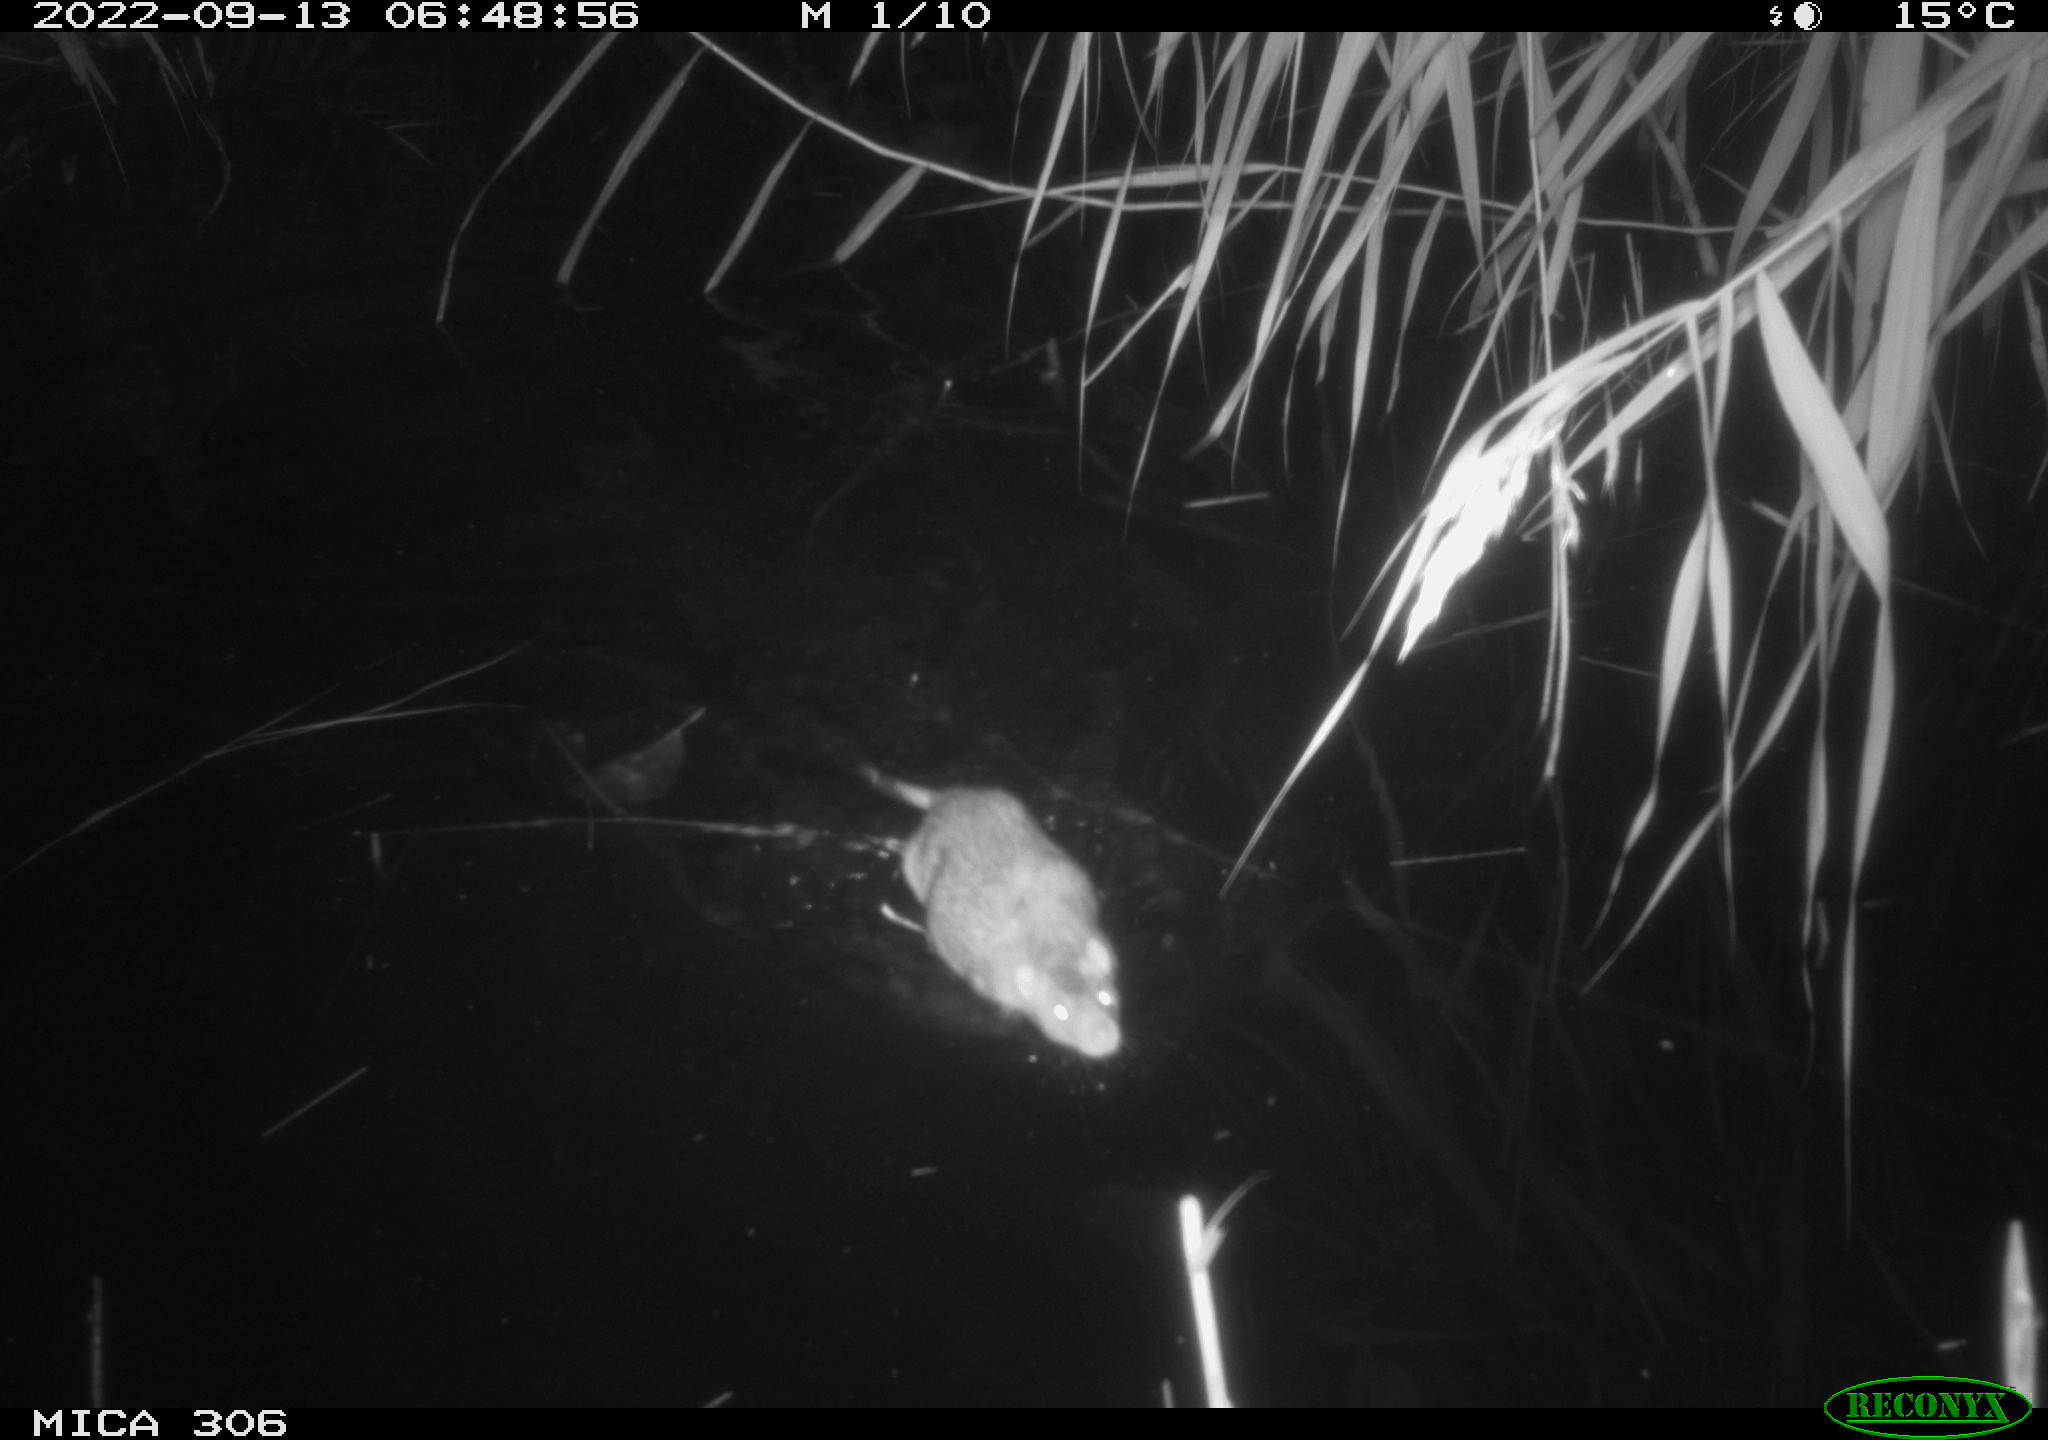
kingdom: Animalia
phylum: Chordata
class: Mammalia
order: Rodentia
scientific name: Rodentia
